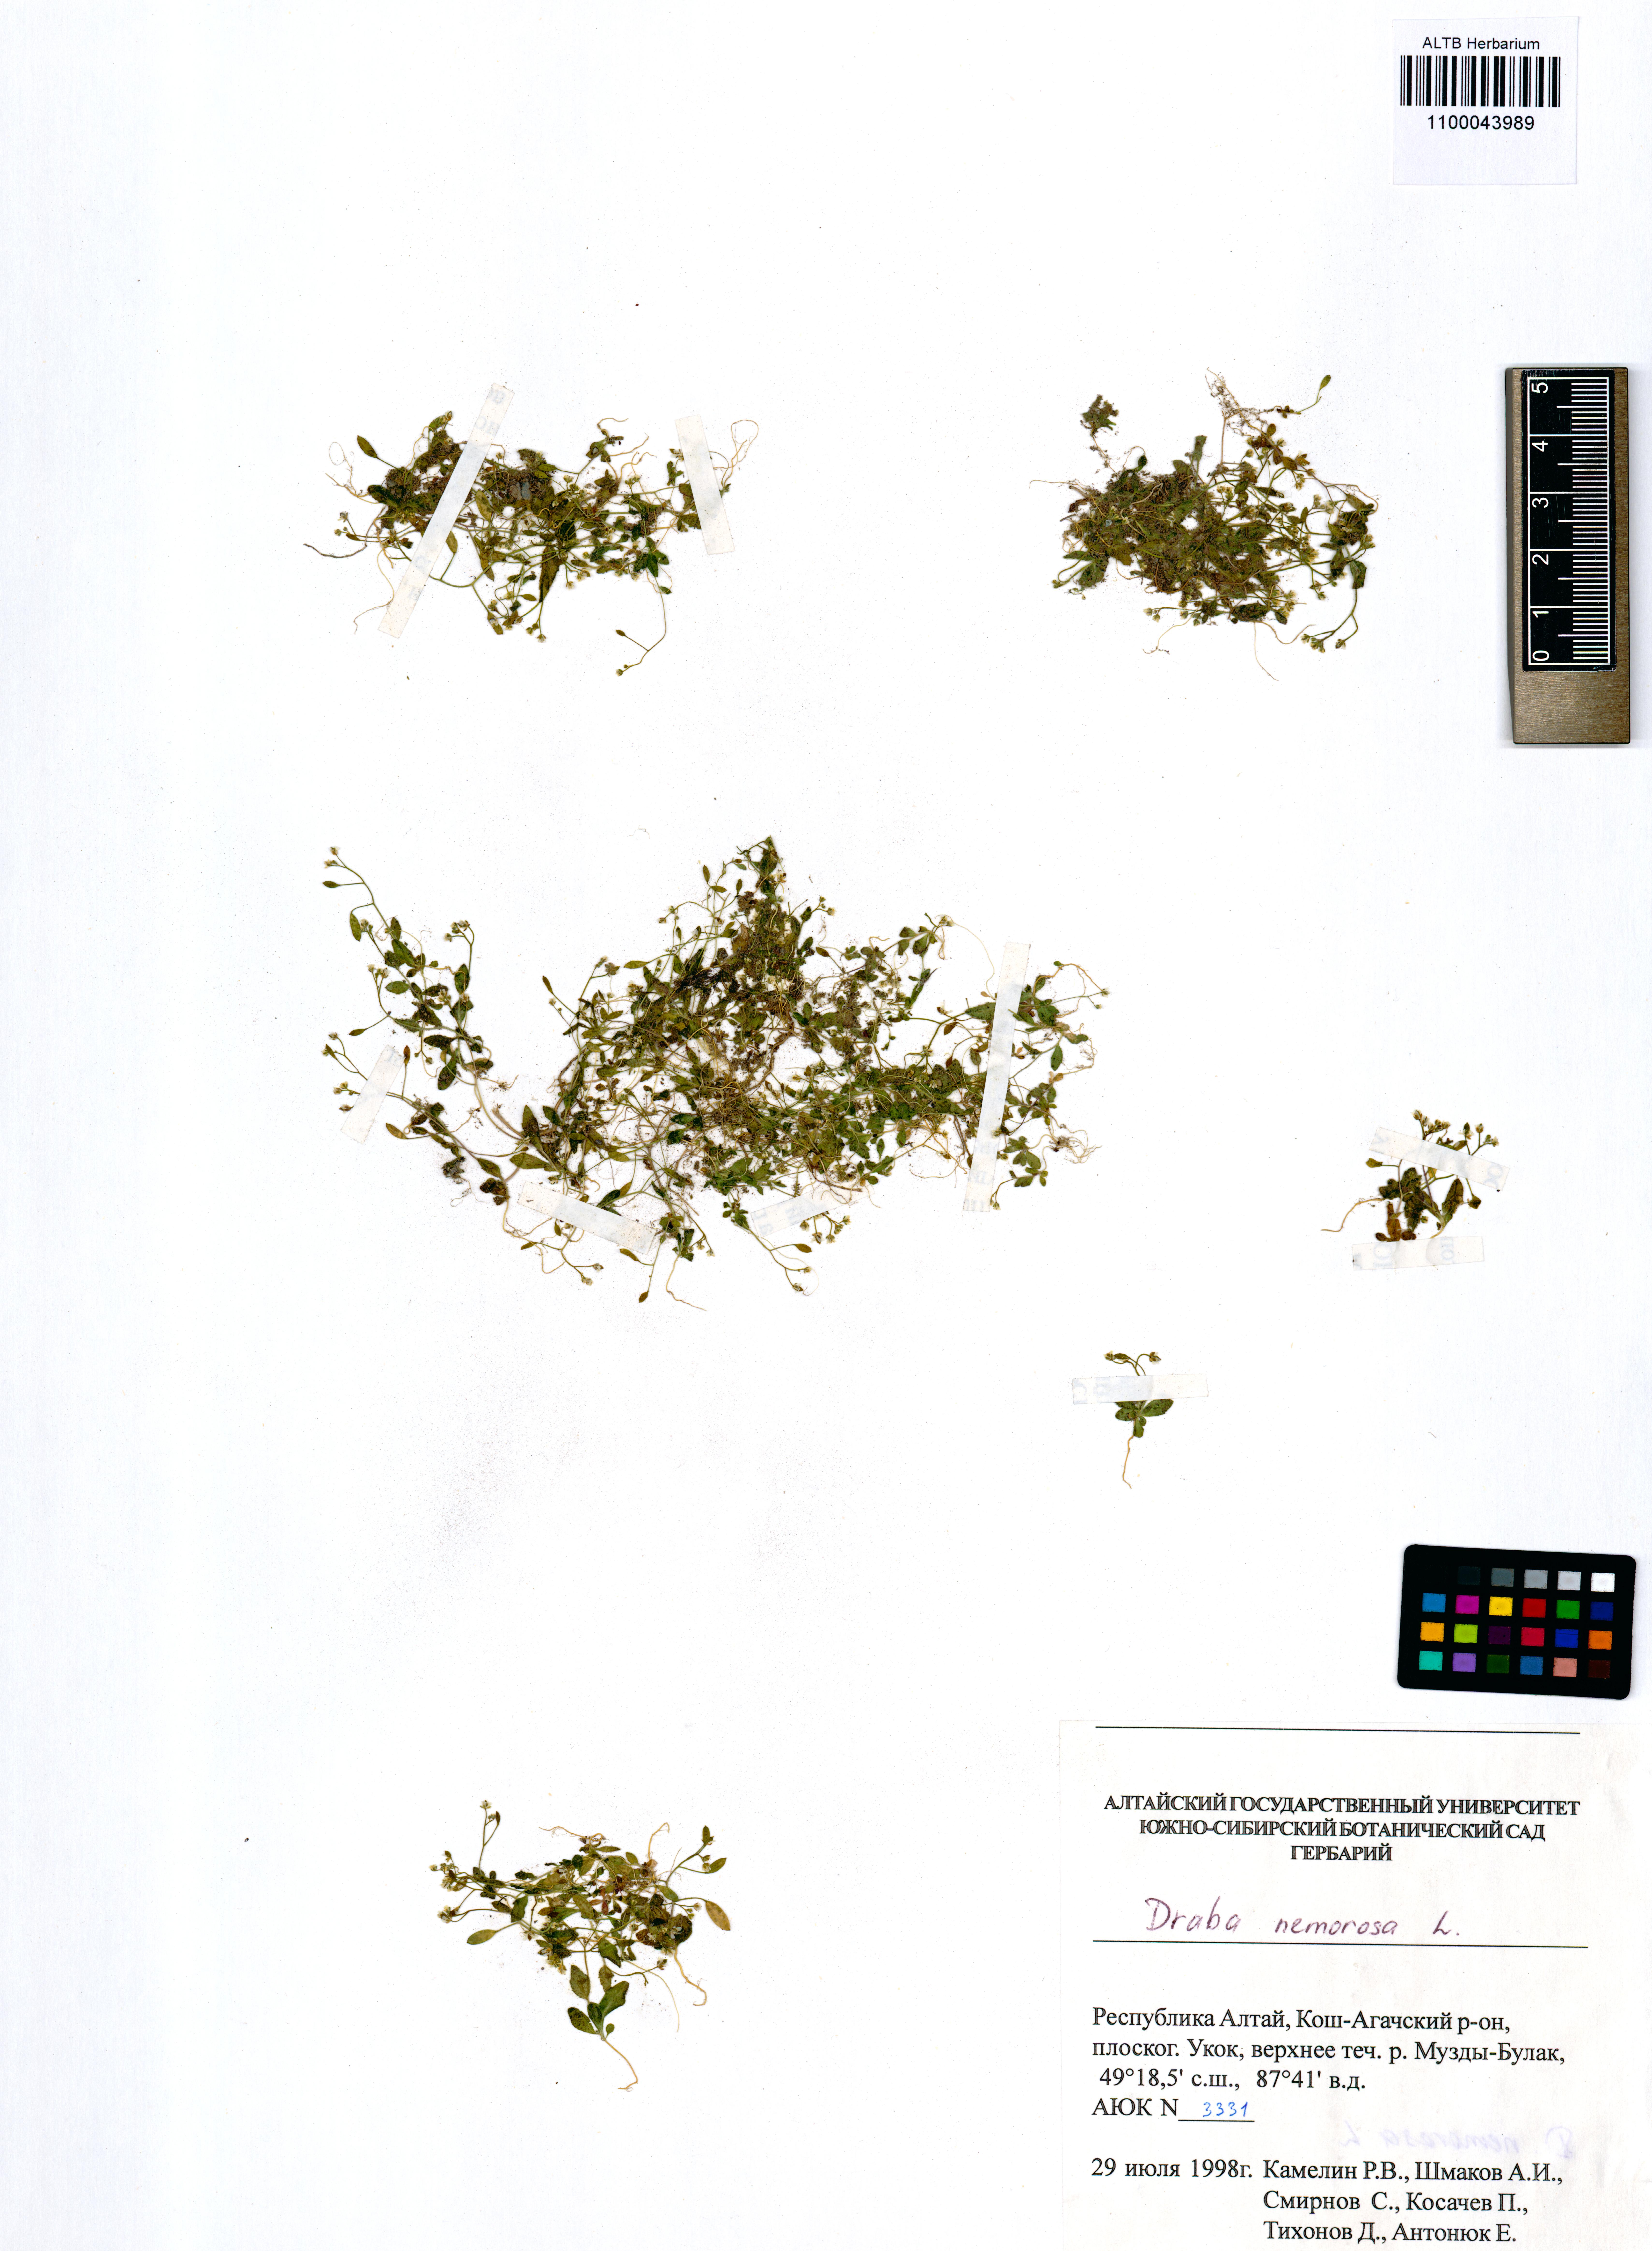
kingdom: Plantae
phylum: Tracheophyta
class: Magnoliopsida
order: Brassicales
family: Brassicaceae
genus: Draba
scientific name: Draba nemorosa
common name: Wood whitlow-grass
